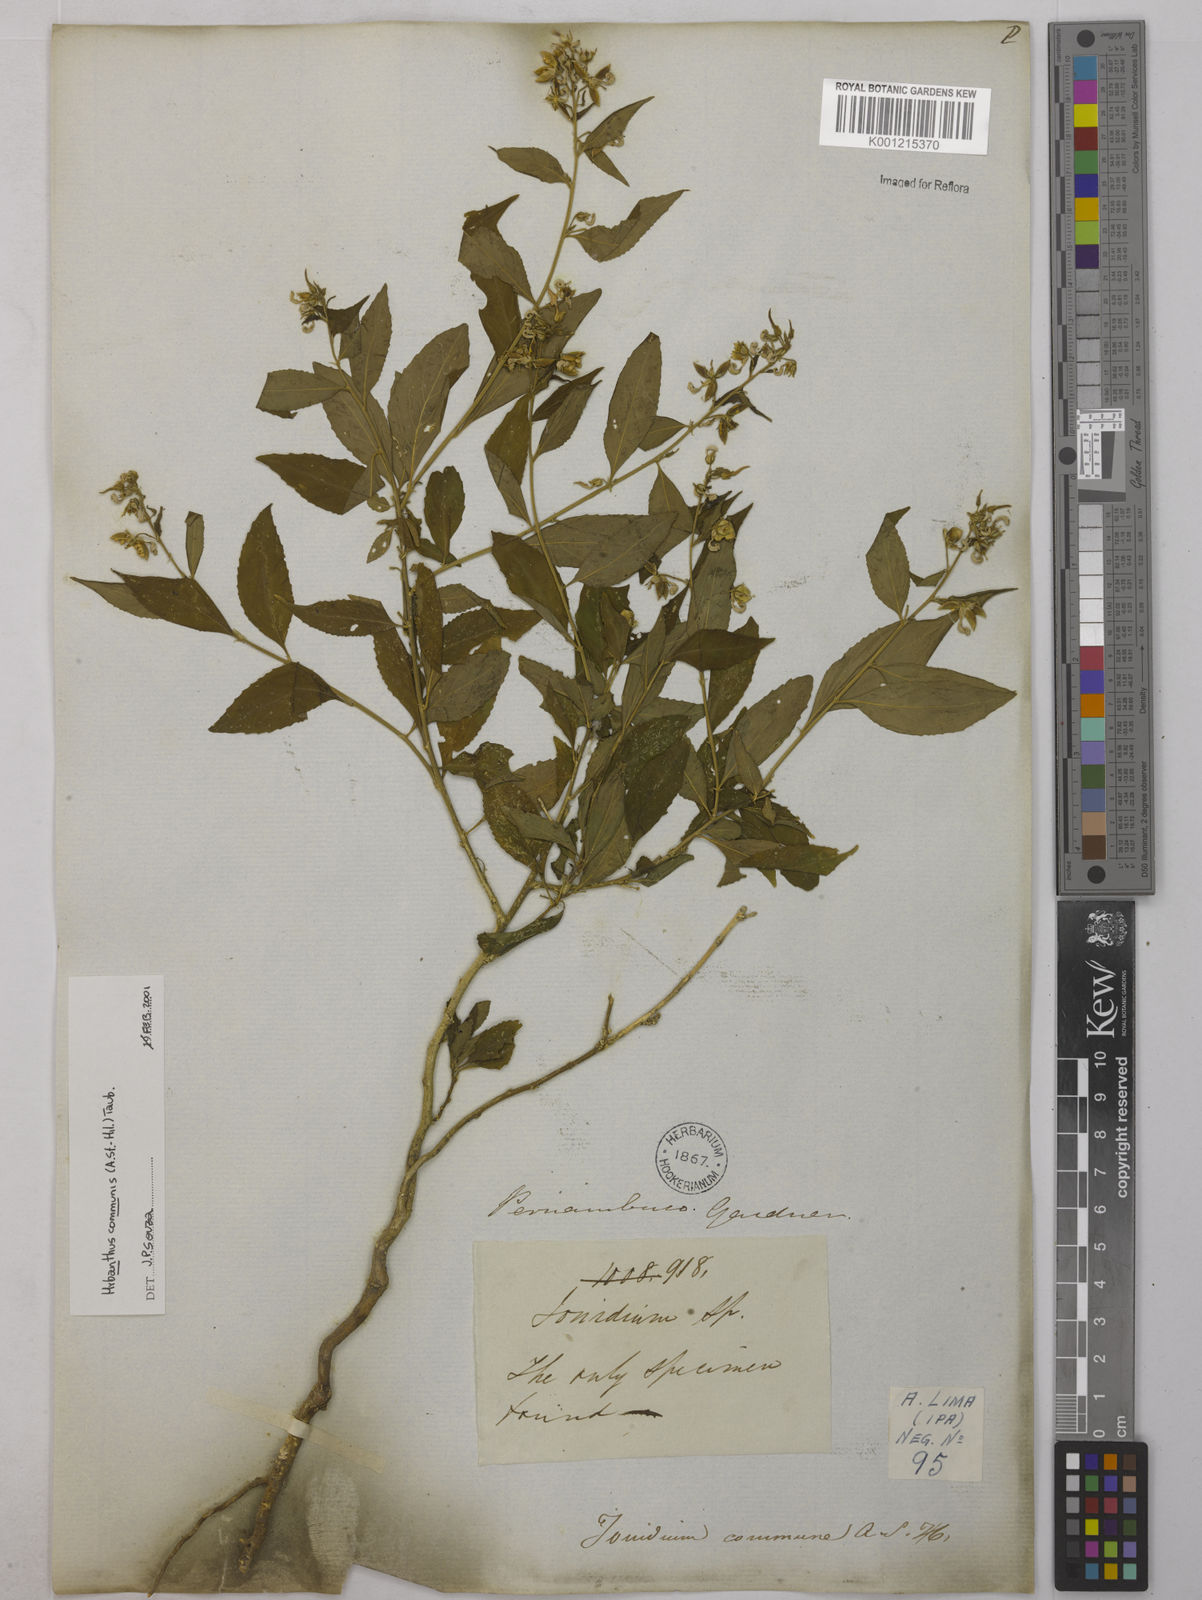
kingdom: Plantae
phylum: Tracheophyta
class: Magnoliopsida
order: Malpighiales
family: Violaceae
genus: Pombalia
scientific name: Pombalia communis
